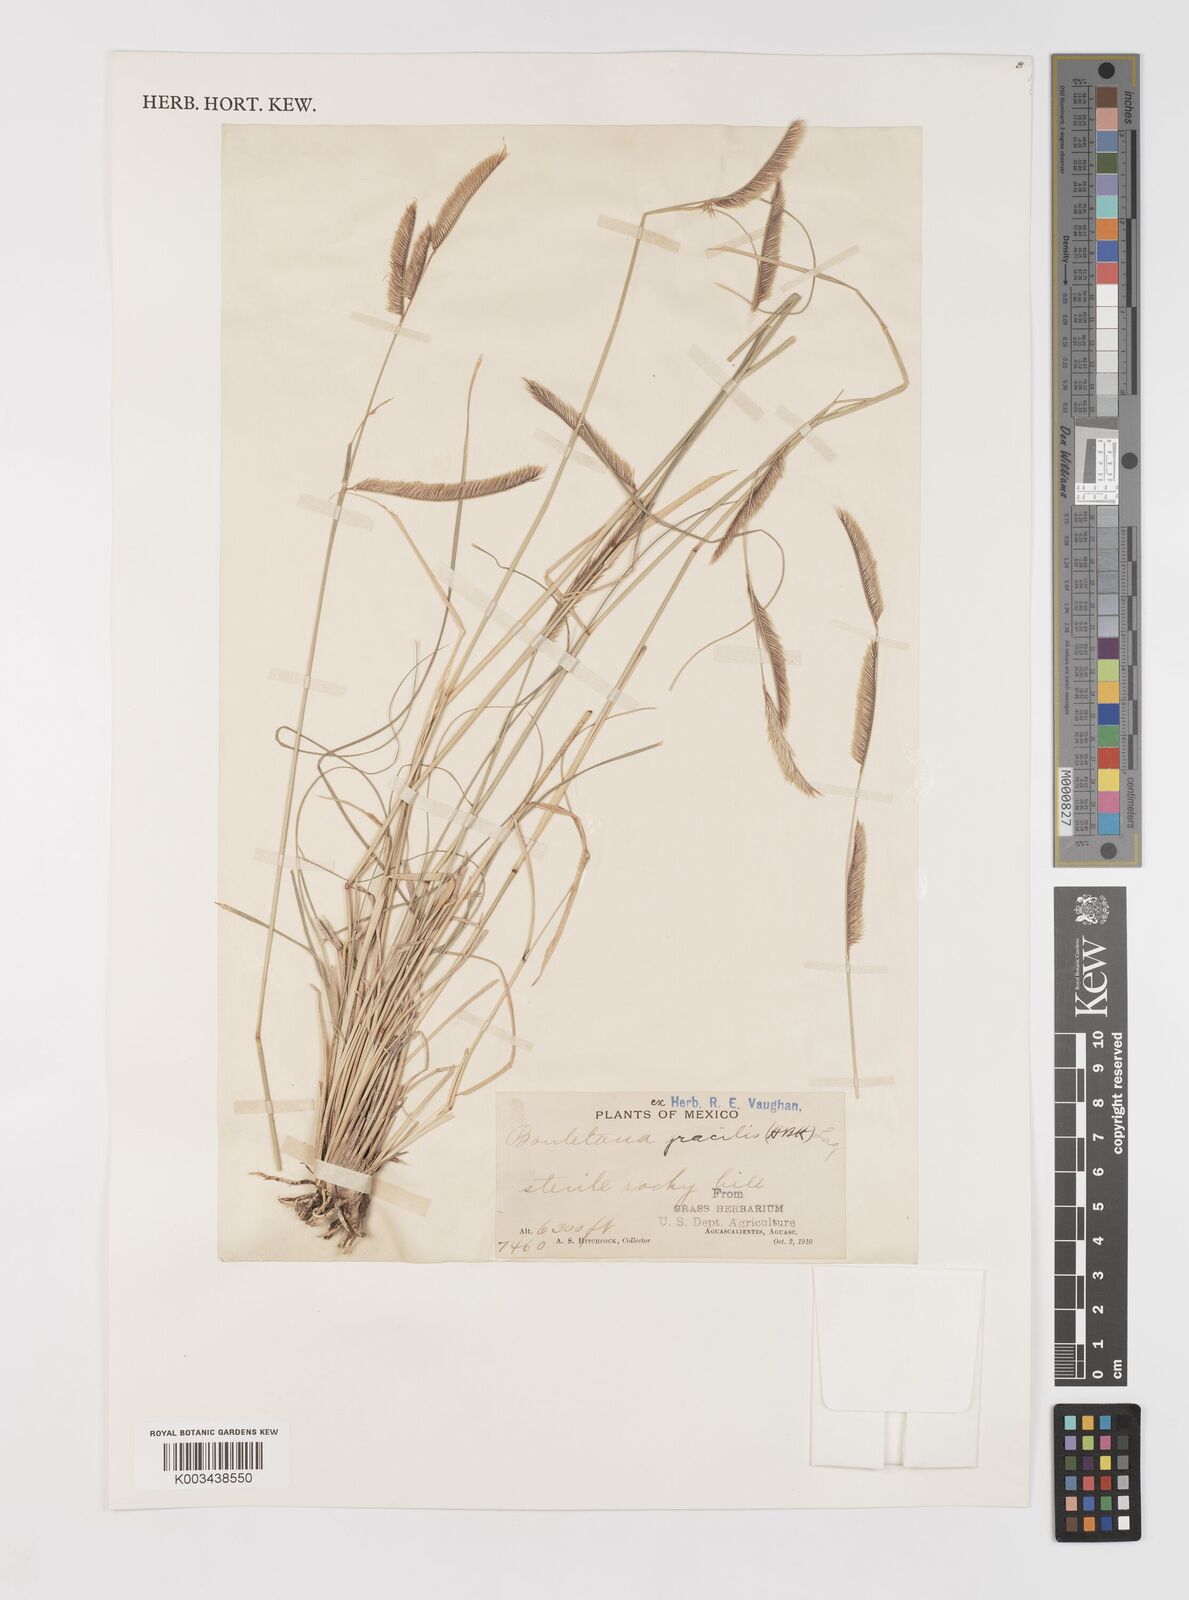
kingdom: Plantae
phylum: Tracheophyta
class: Liliopsida
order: Poales
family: Poaceae
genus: Bouteloua
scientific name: Bouteloua gracilis
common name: Blue grama
